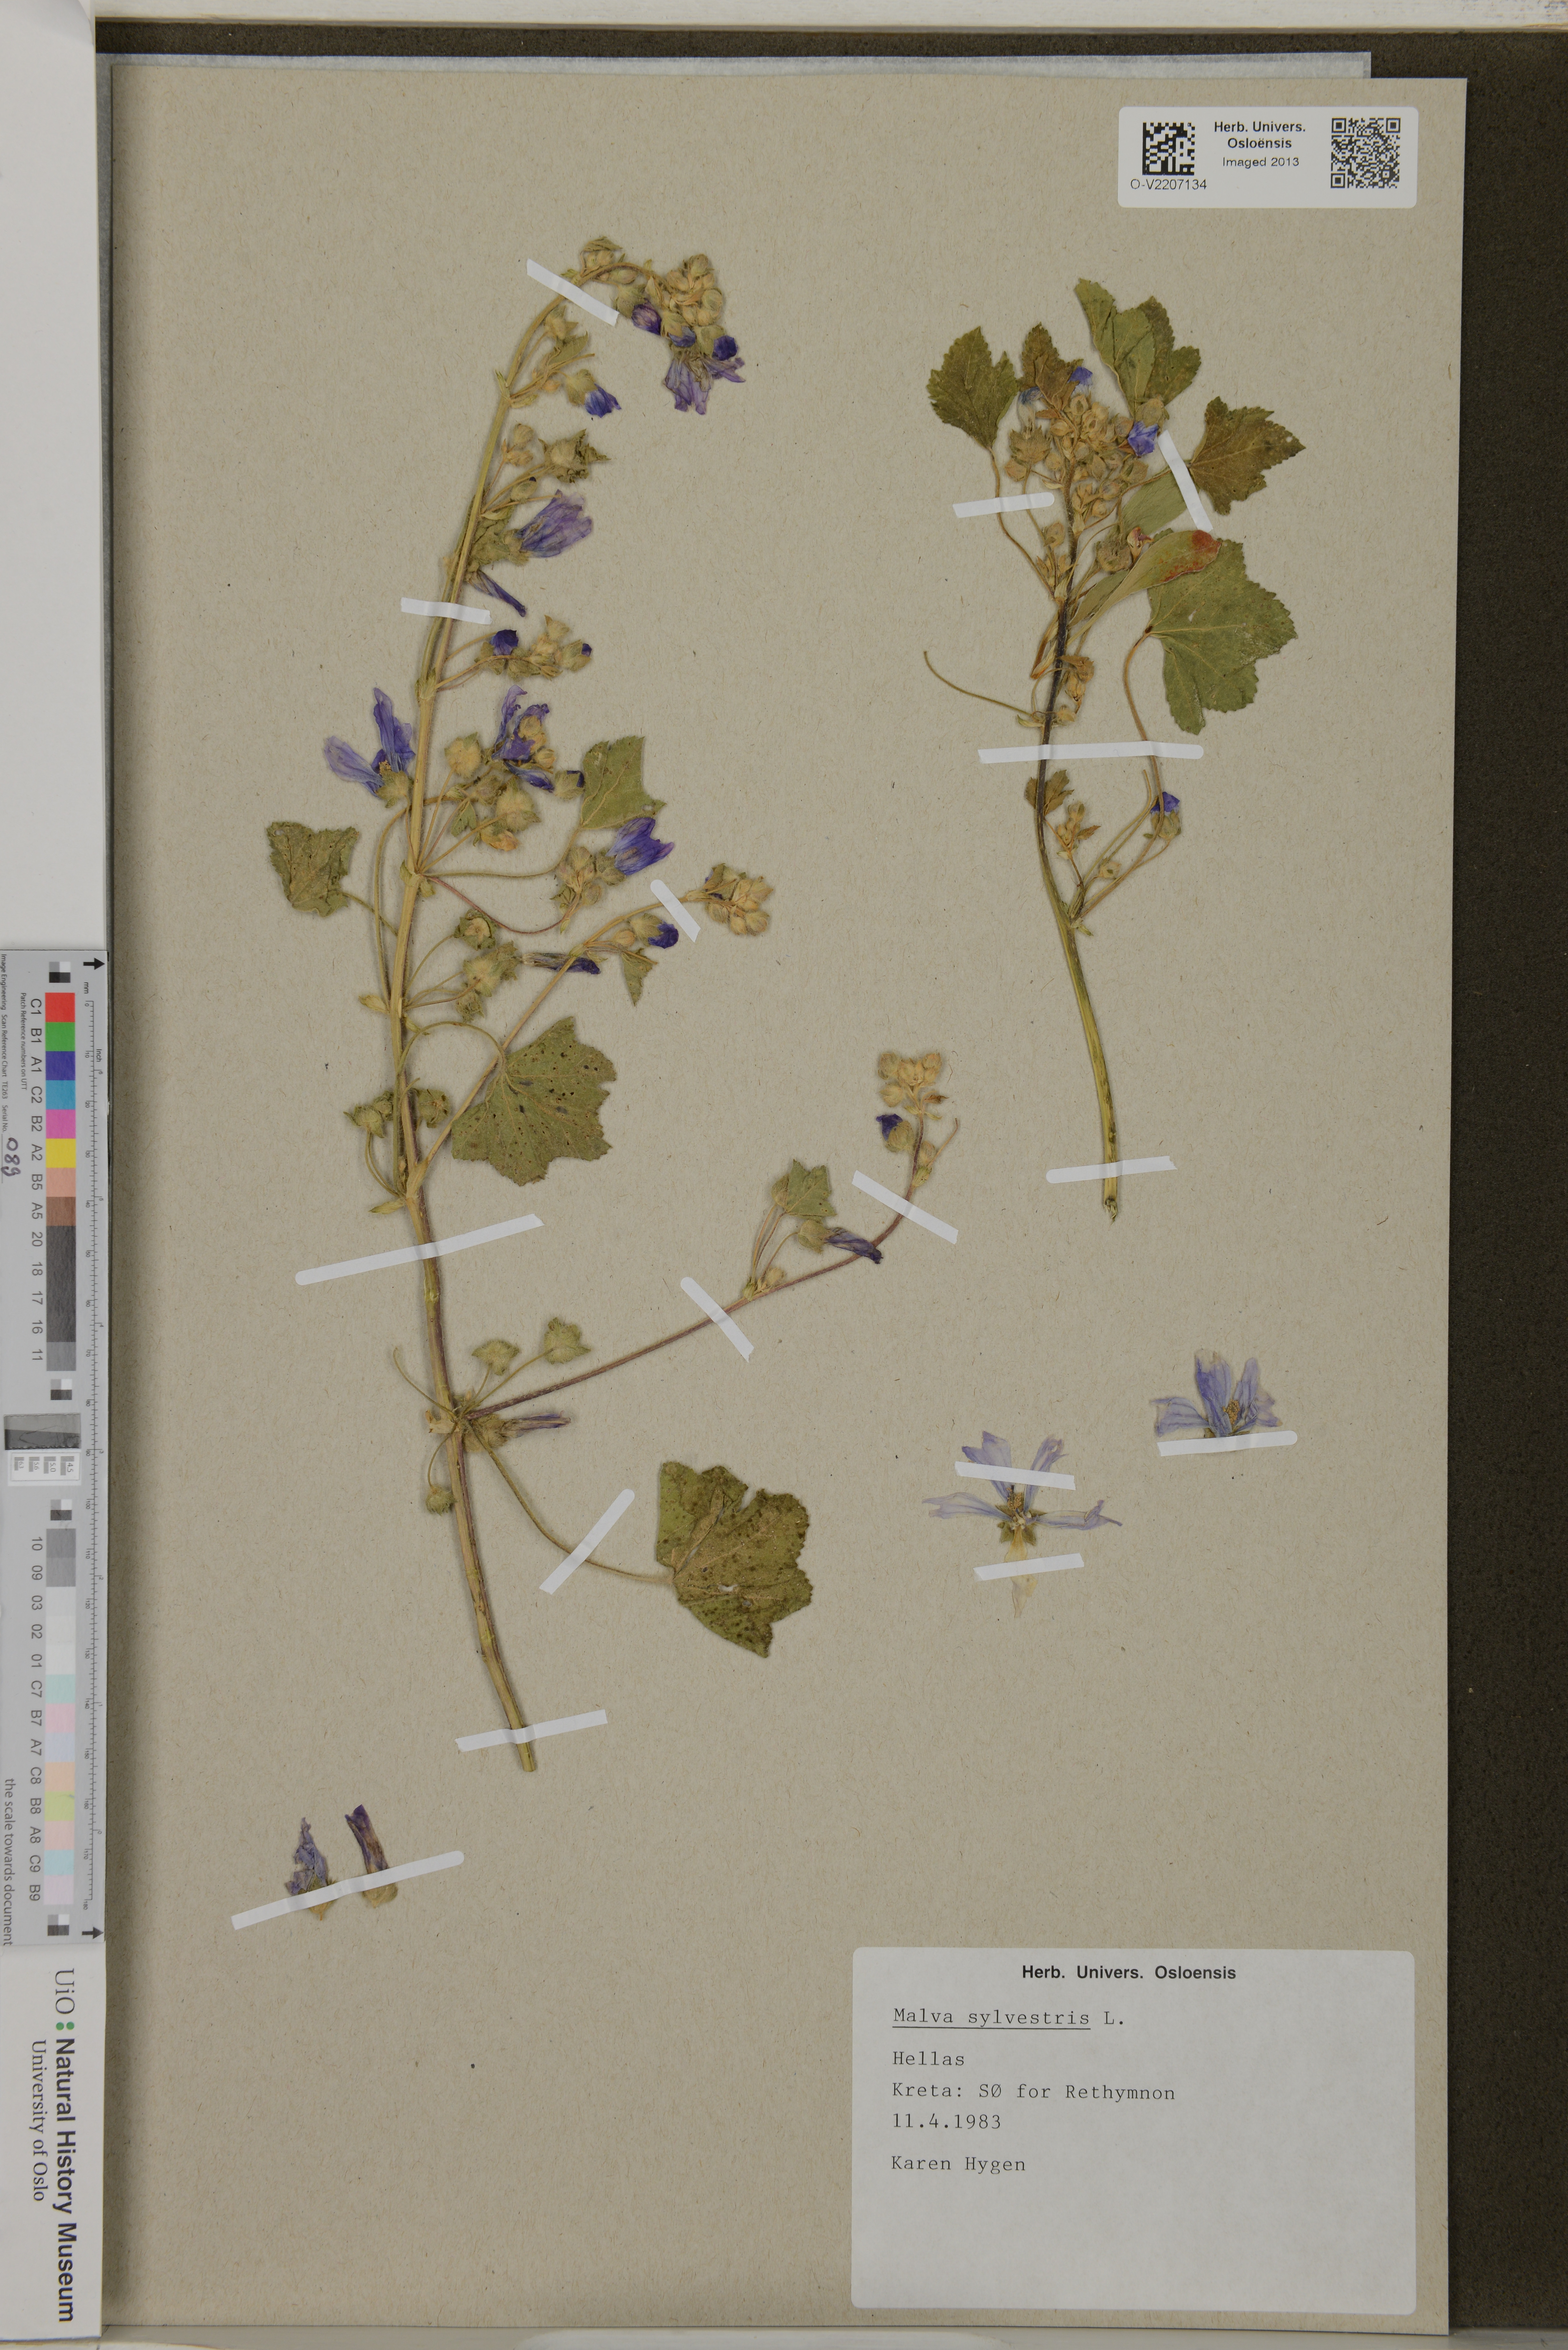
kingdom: Plantae
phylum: Tracheophyta
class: Magnoliopsida
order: Malvales
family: Malvaceae
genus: Malva
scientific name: Malva sylvestris
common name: Common mallow
